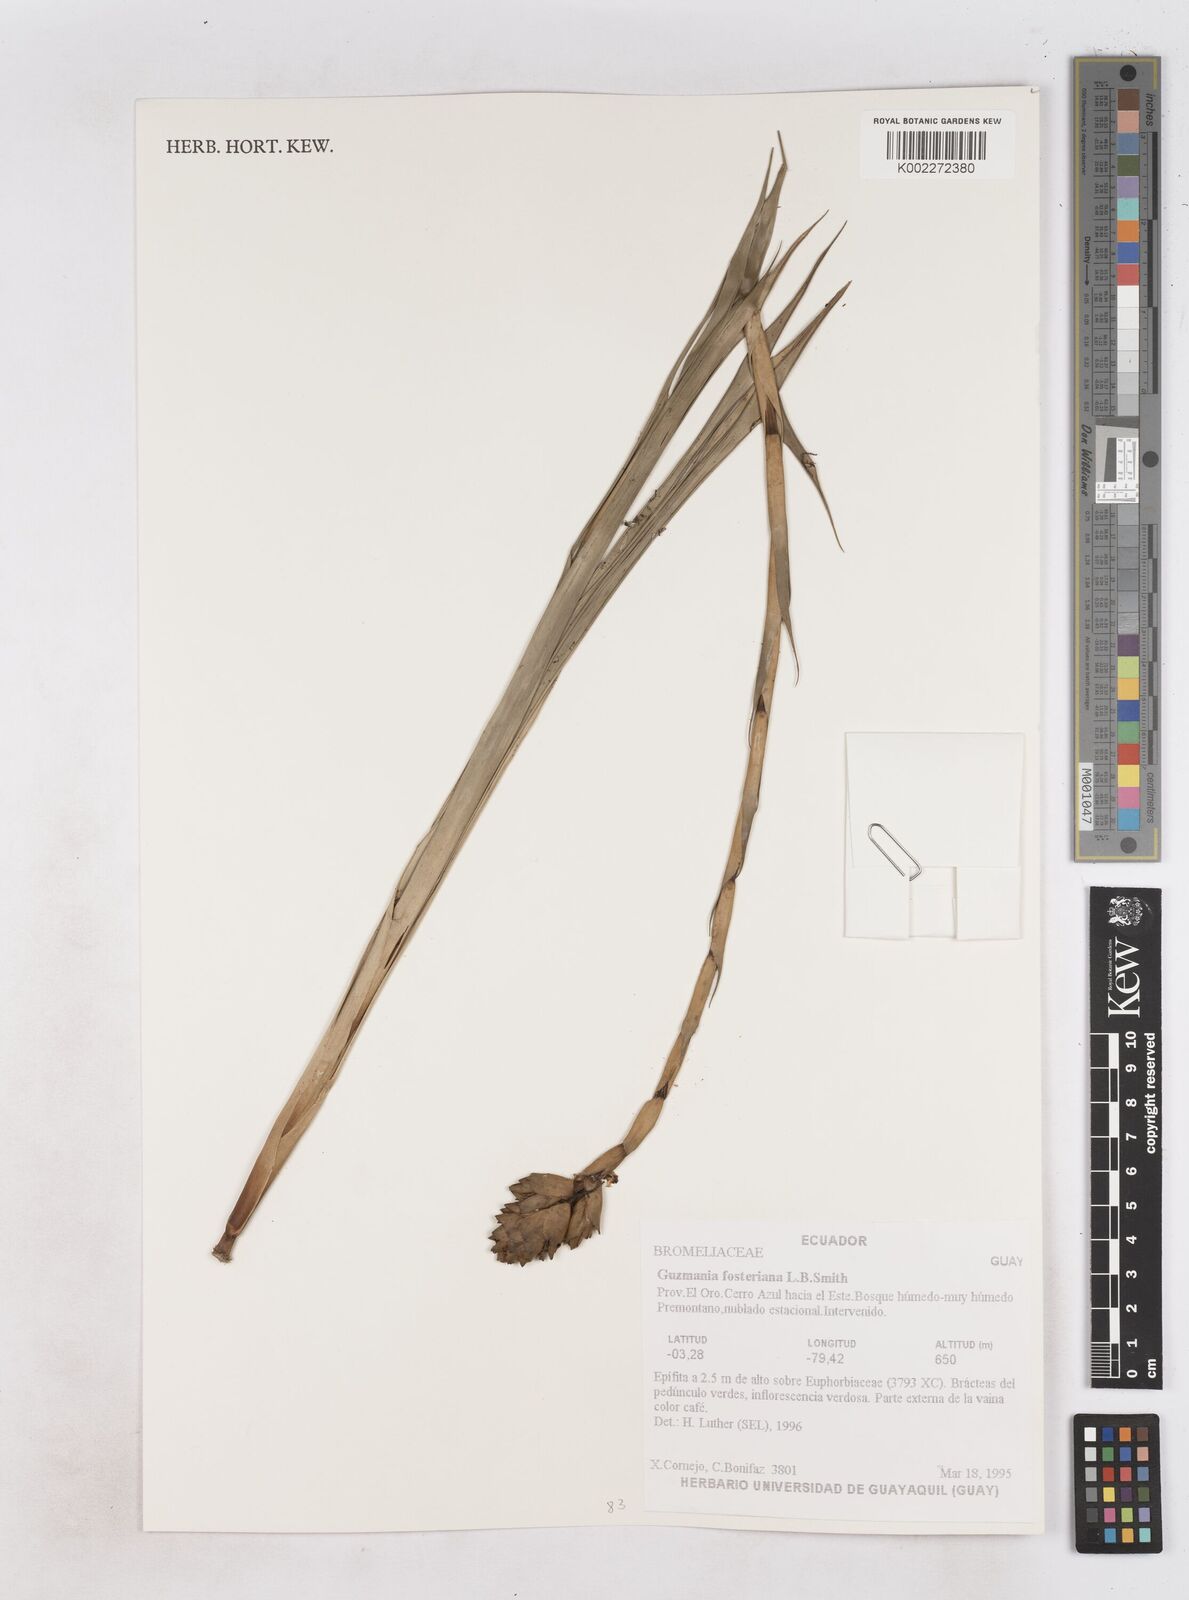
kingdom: Plantae
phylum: Tracheophyta
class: Liliopsida
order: Poales
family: Bromeliaceae
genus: Guzmania
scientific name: Guzmania fosteriana
